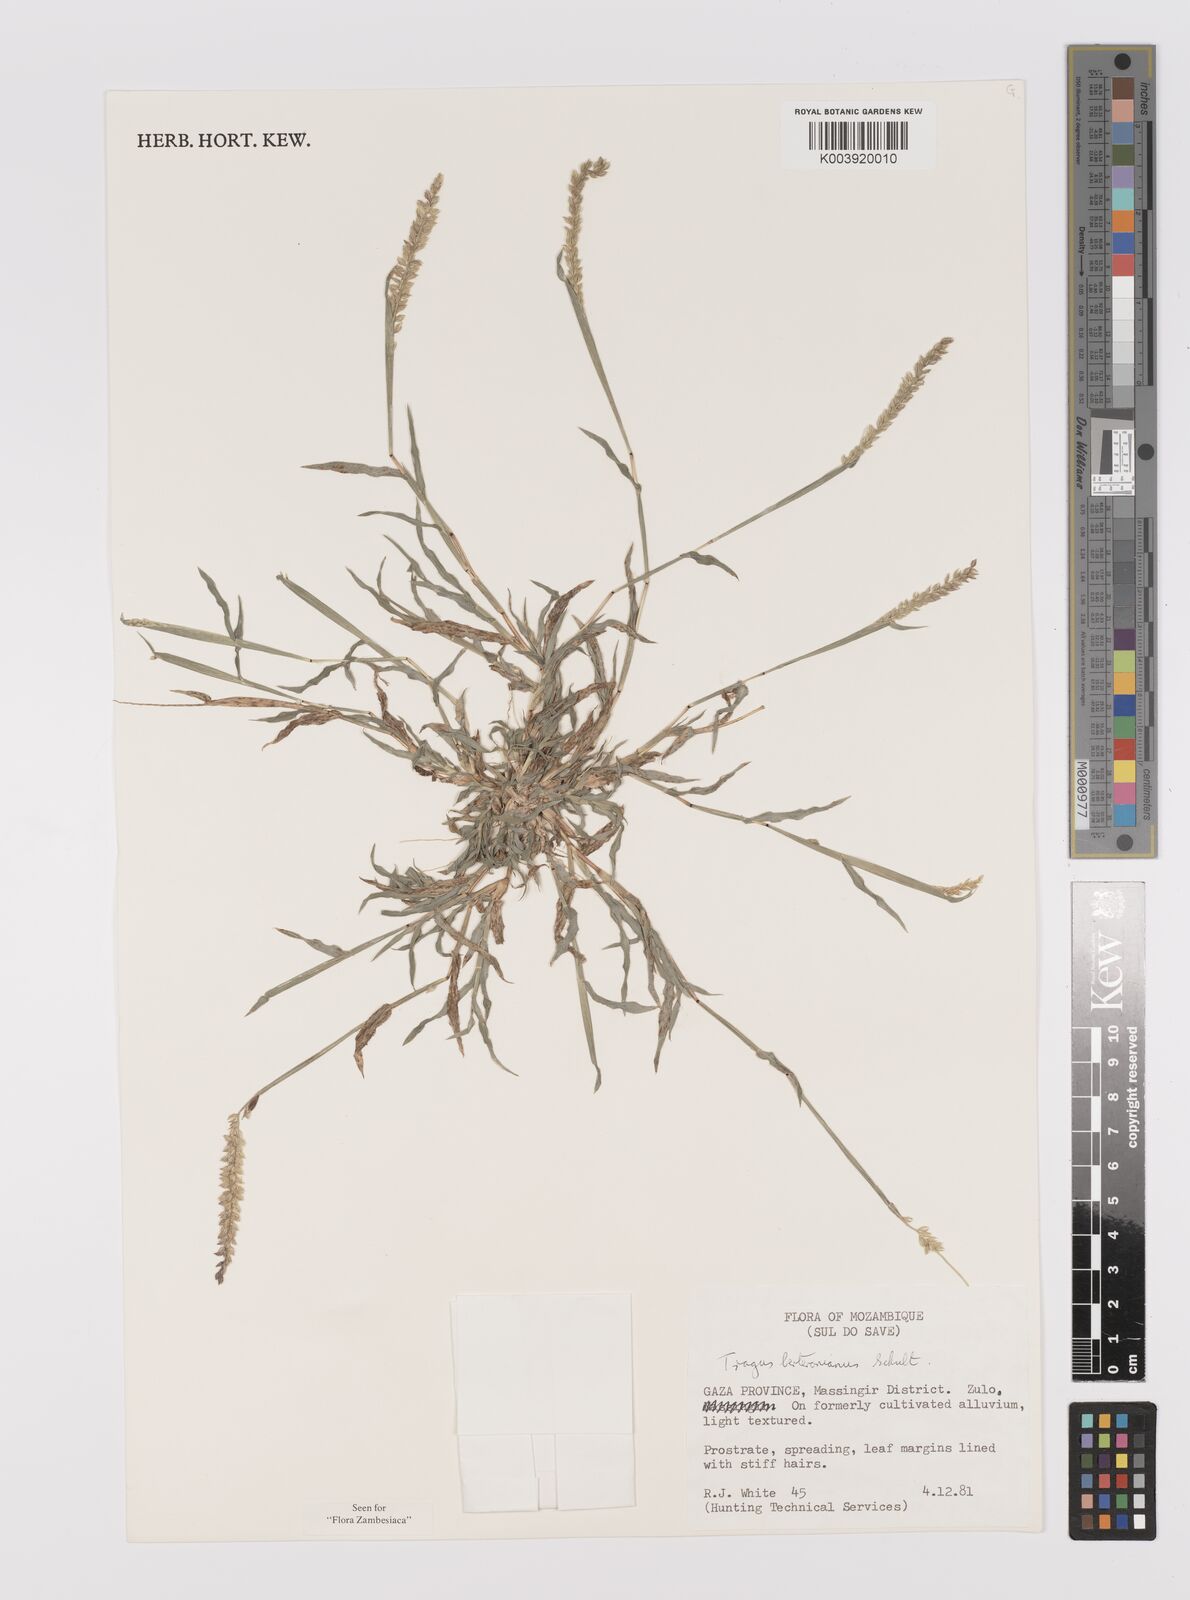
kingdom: Plantae
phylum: Tracheophyta
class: Liliopsida
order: Poales
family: Poaceae
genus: Tragus
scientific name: Tragus berteronianus
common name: African bur-grass
